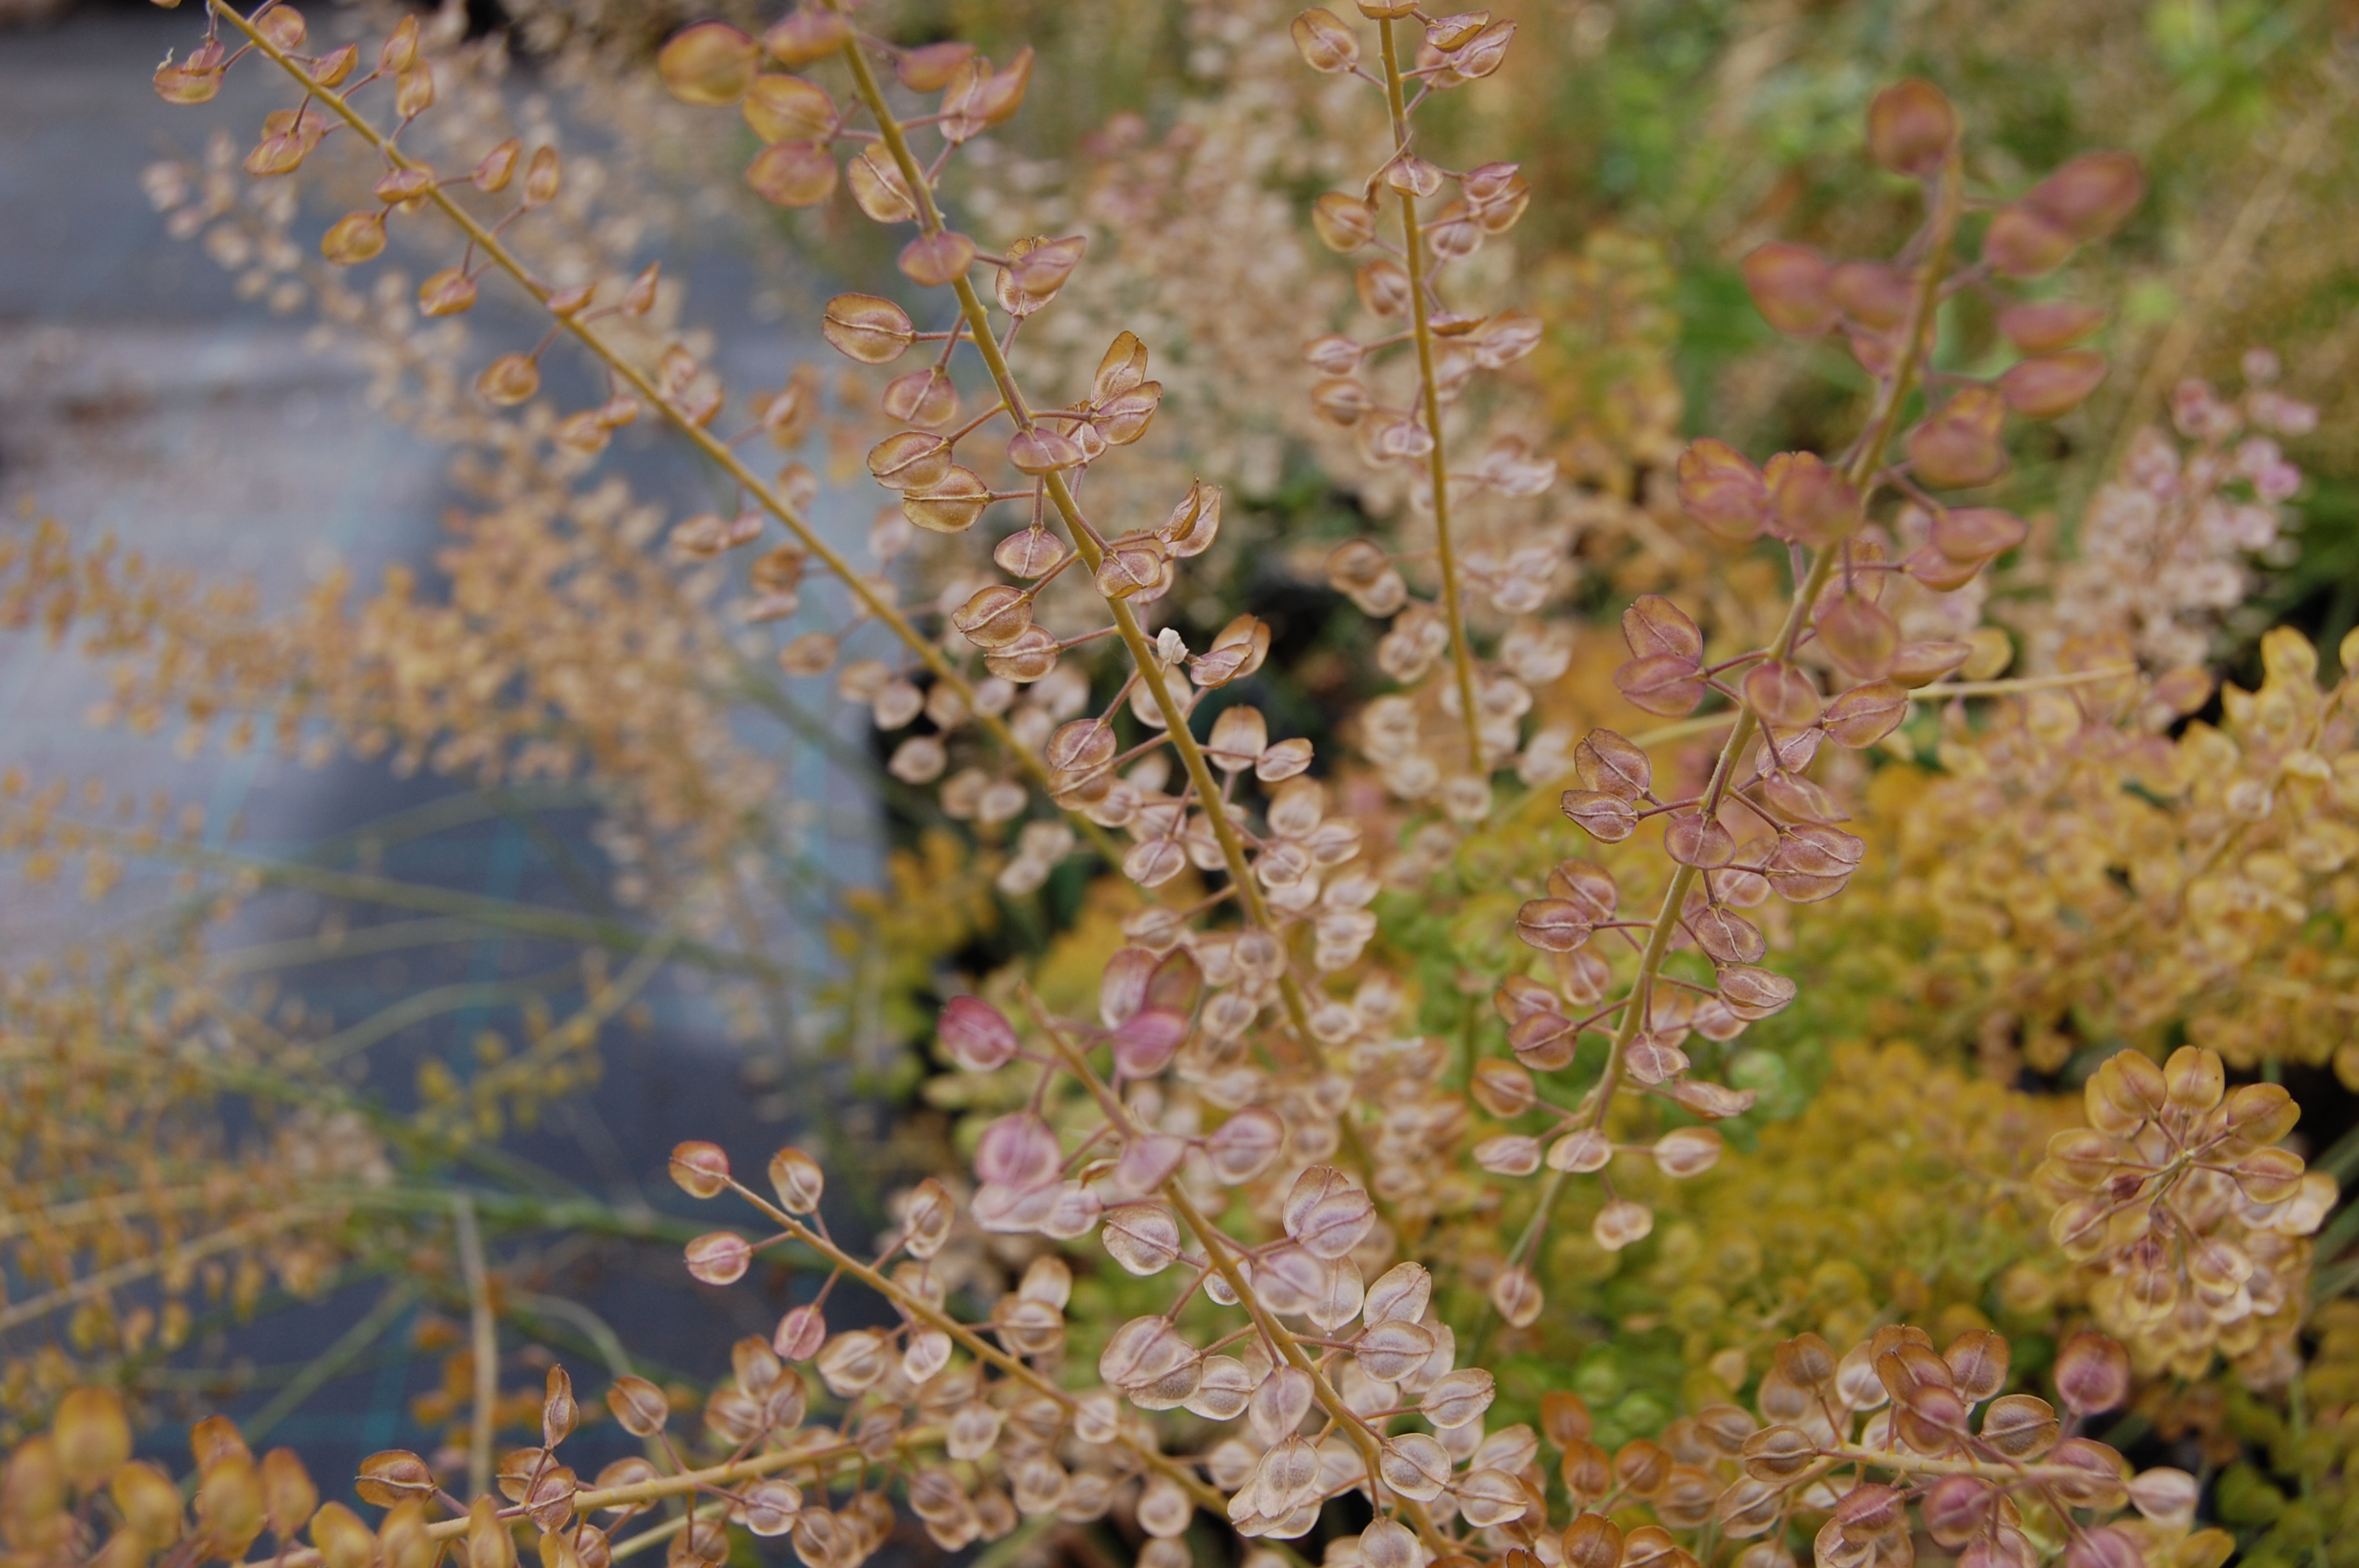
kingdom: Plantae
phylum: Tracheophyta
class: Magnoliopsida
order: Brassicales
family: Brassicaceae
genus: Lepidium
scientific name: Lepidium campestre
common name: Field pepperwort
